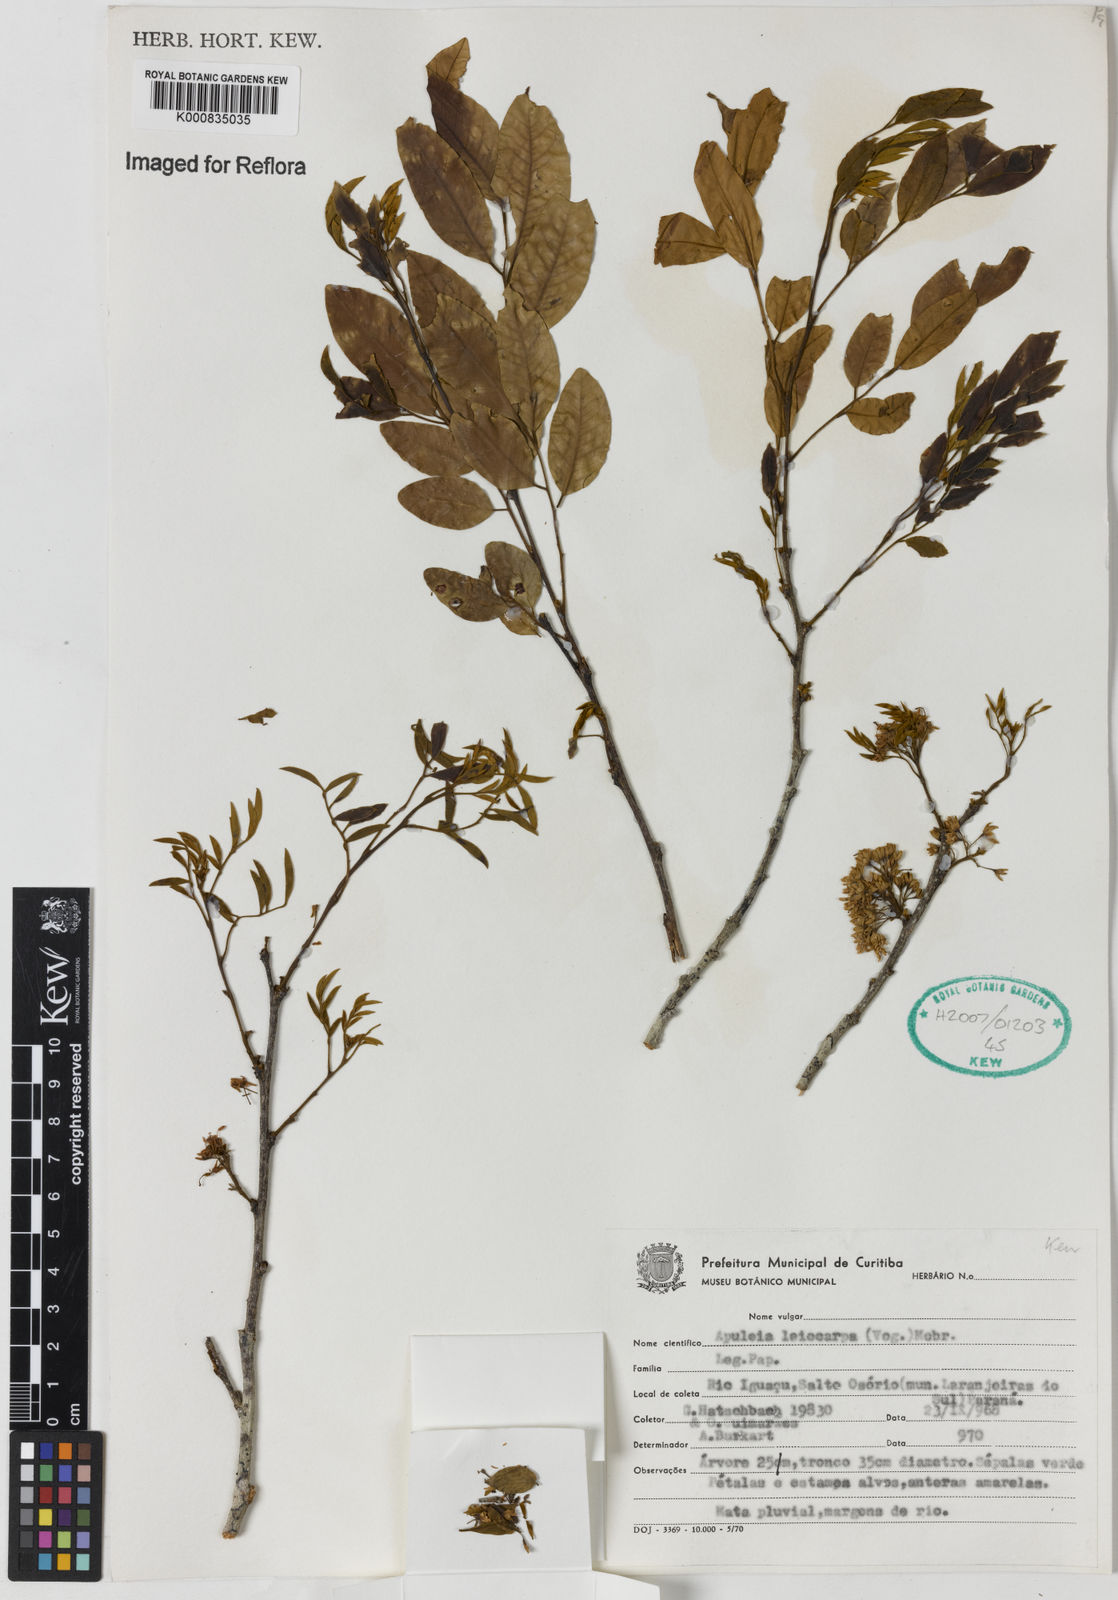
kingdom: Plantae
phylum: Tracheophyta
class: Magnoliopsida
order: Fabales
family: Fabaceae
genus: Apuleia
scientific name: Apuleia leiocarpa
